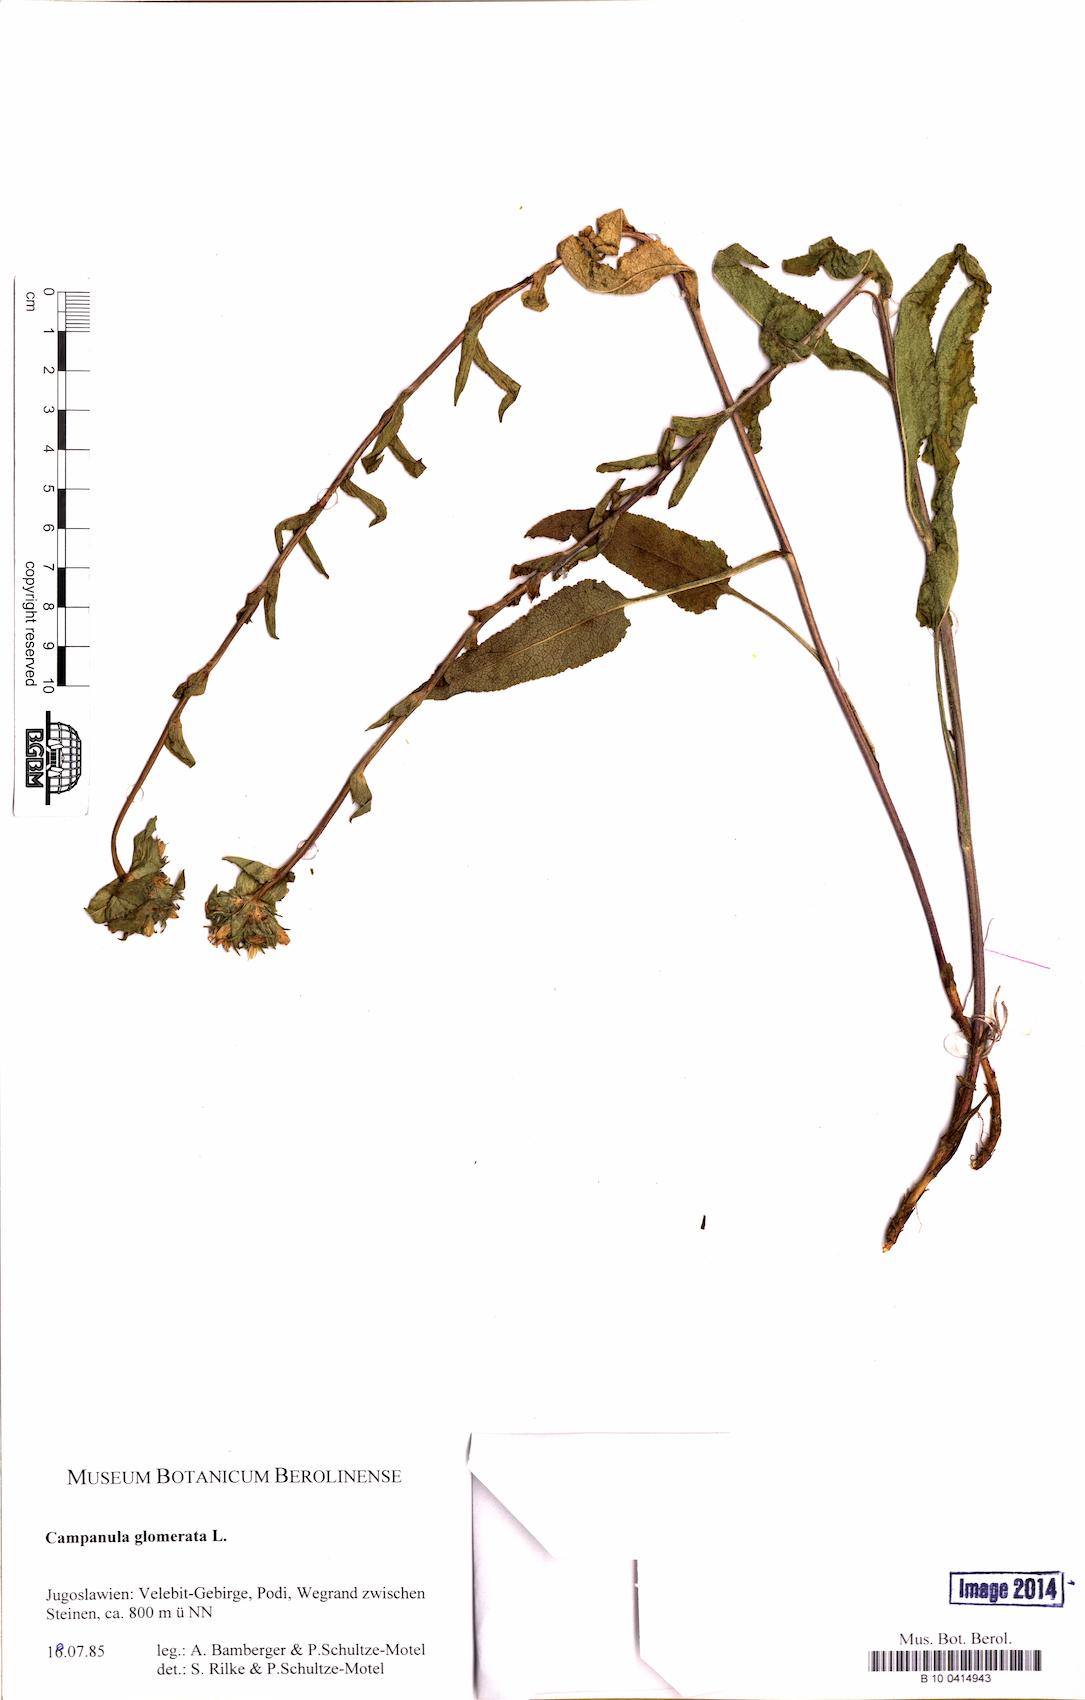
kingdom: Plantae
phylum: Tracheophyta
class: Magnoliopsida
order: Asterales
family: Campanulaceae
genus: Campanula
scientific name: Campanula glomerata
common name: Clustered bellflower
